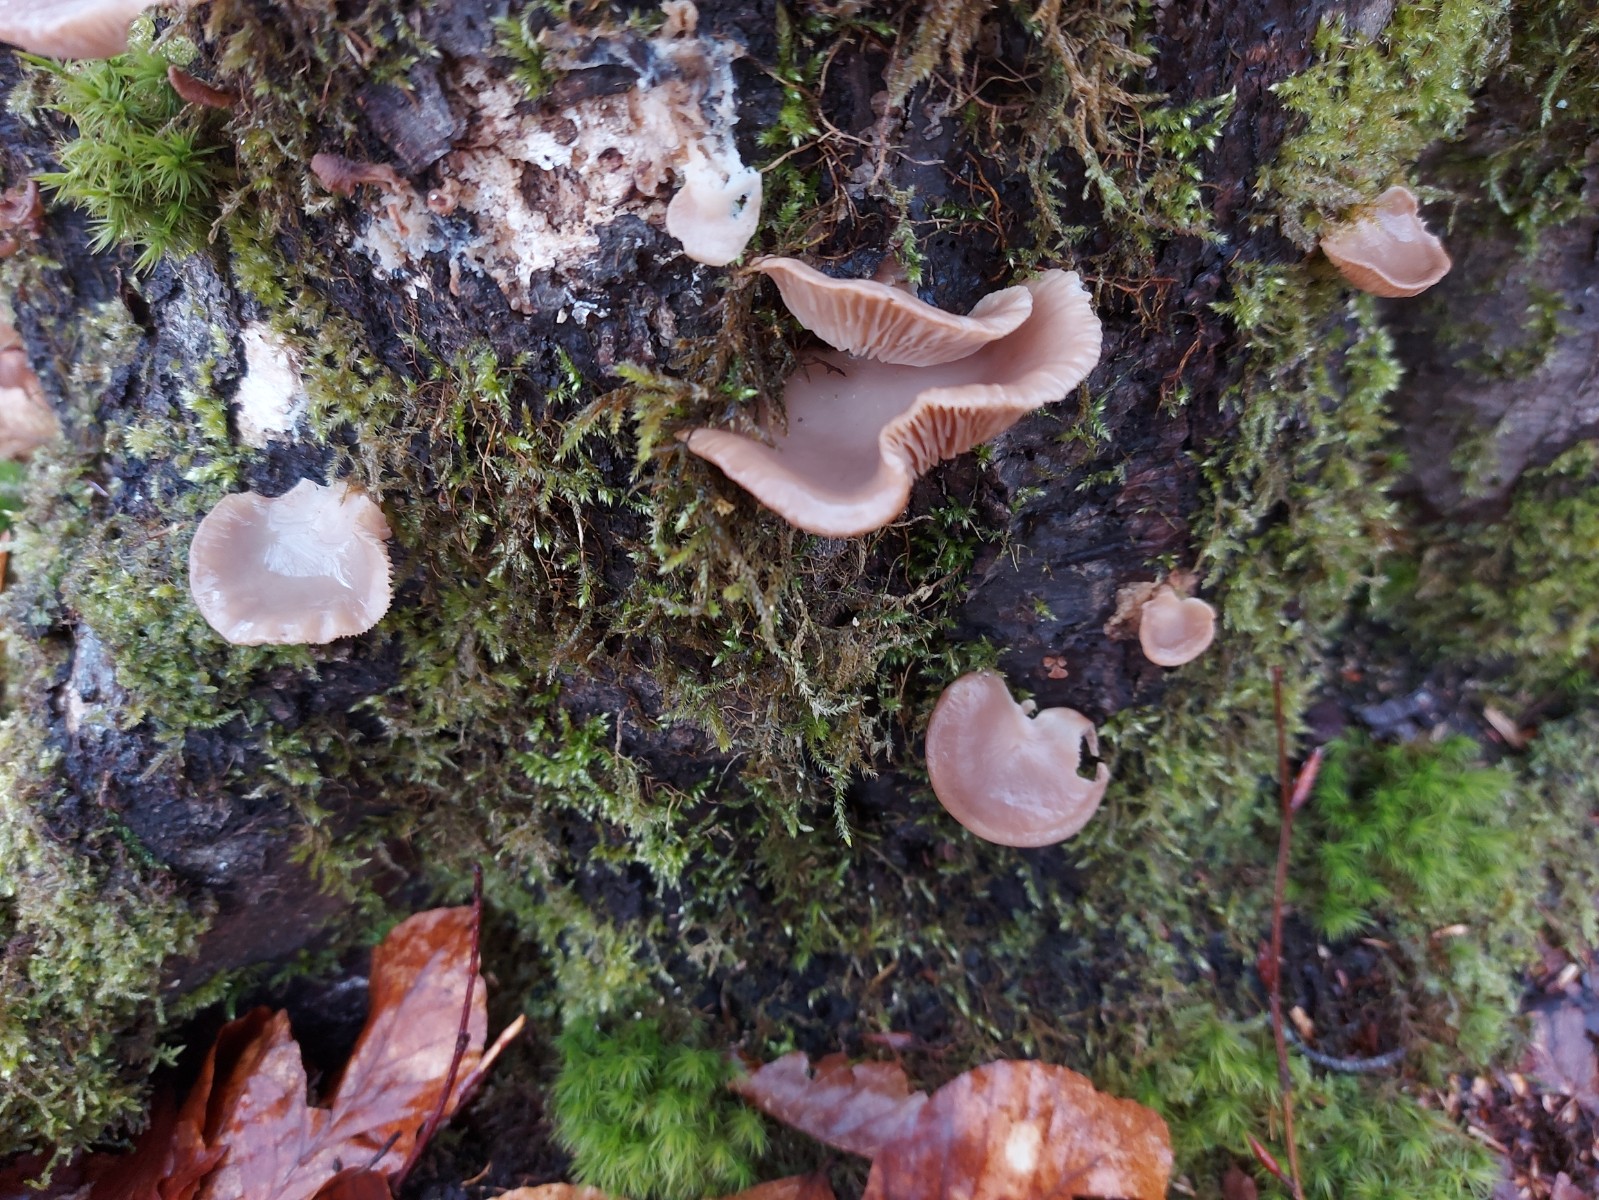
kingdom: Fungi
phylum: Basidiomycota
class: Agaricomycetes
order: Agaricales
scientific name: Agaricales
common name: champignonordenen
